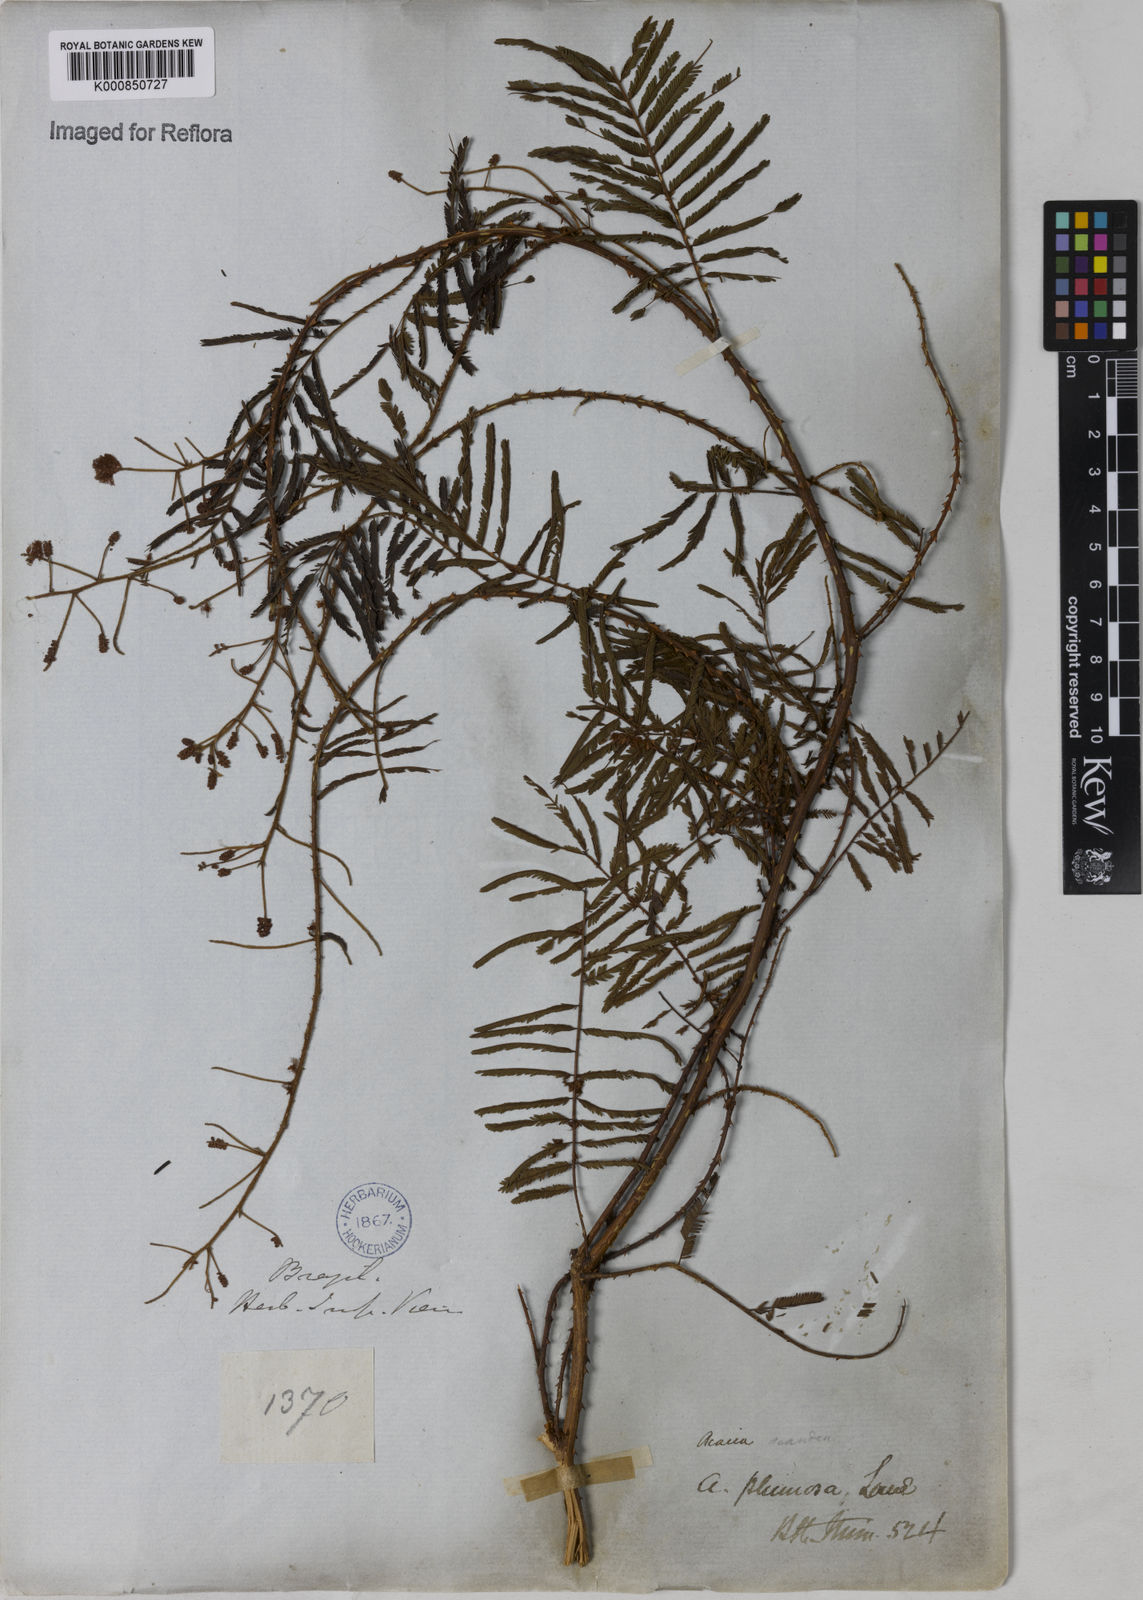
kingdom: Plantae
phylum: Tracheophyta
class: Magnoliopsida
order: Fabales
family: Fabaceae
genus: Senegalia
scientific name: Senegalia lowei
